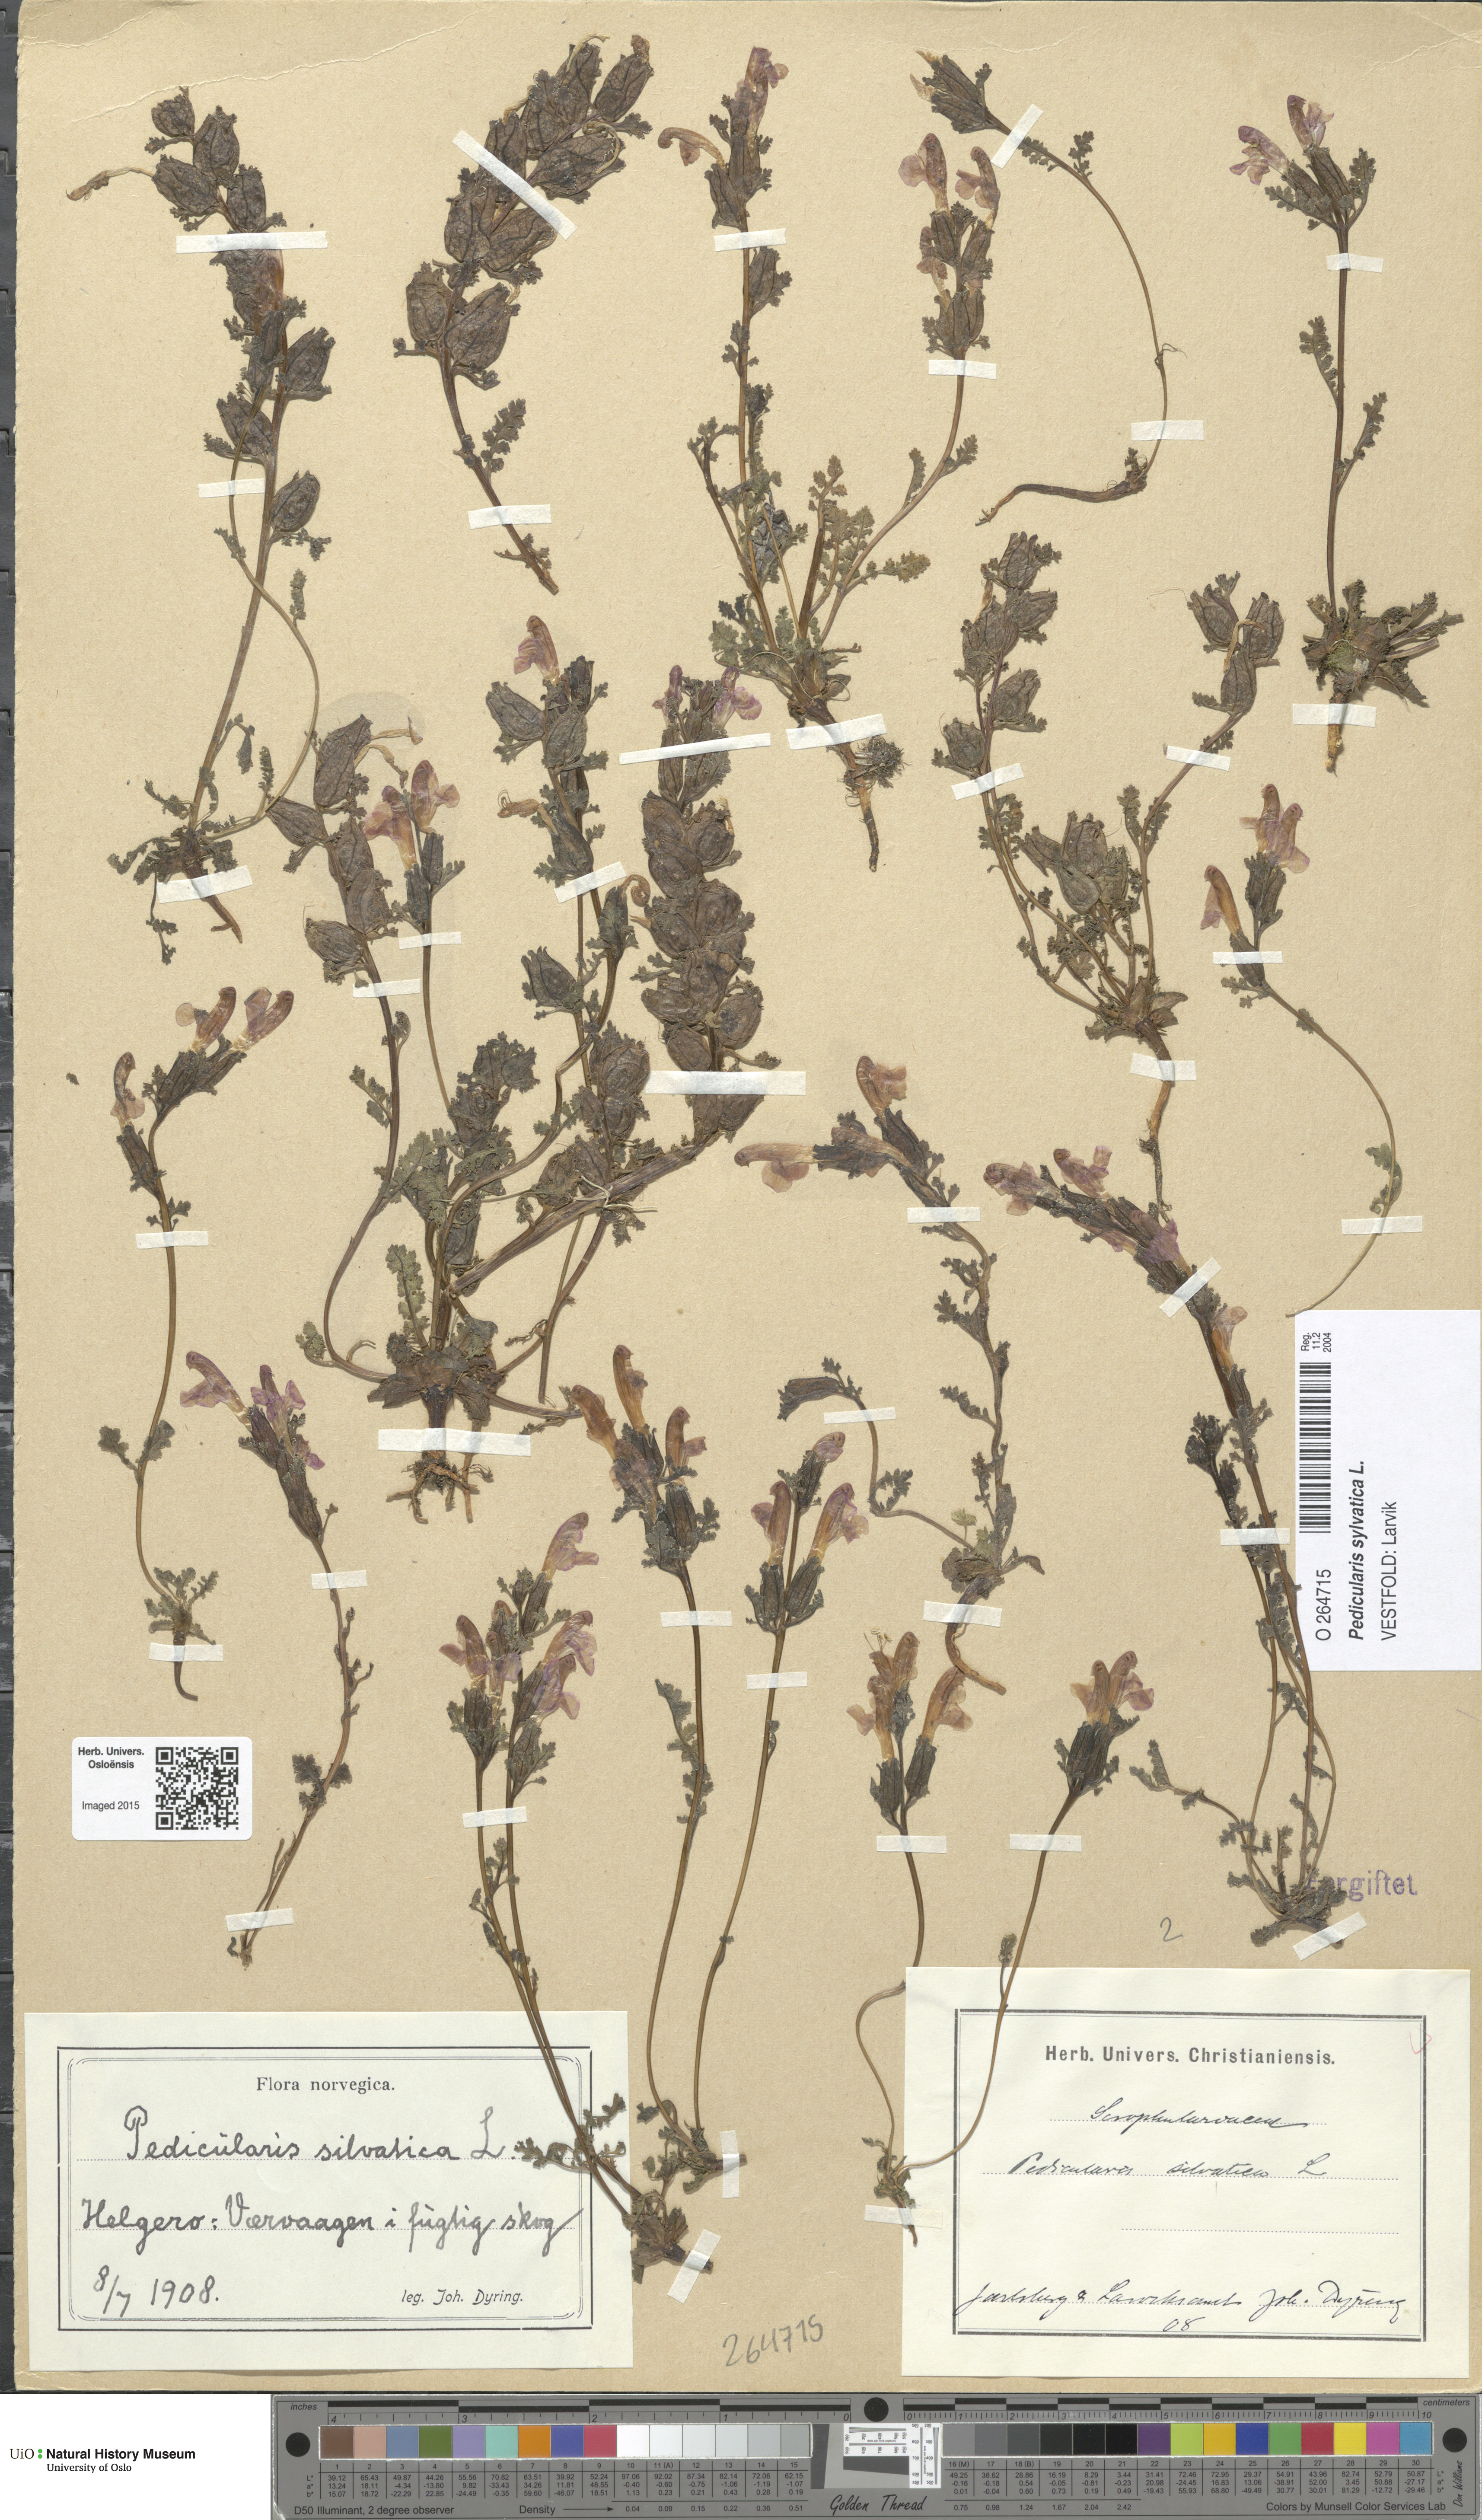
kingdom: Plantae
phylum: Tracheophyta
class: Magnoliopsida
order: Lamiales
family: Orobanchaceae
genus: Pedicularis
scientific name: Pedicularis sylvatica
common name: Lousewort
